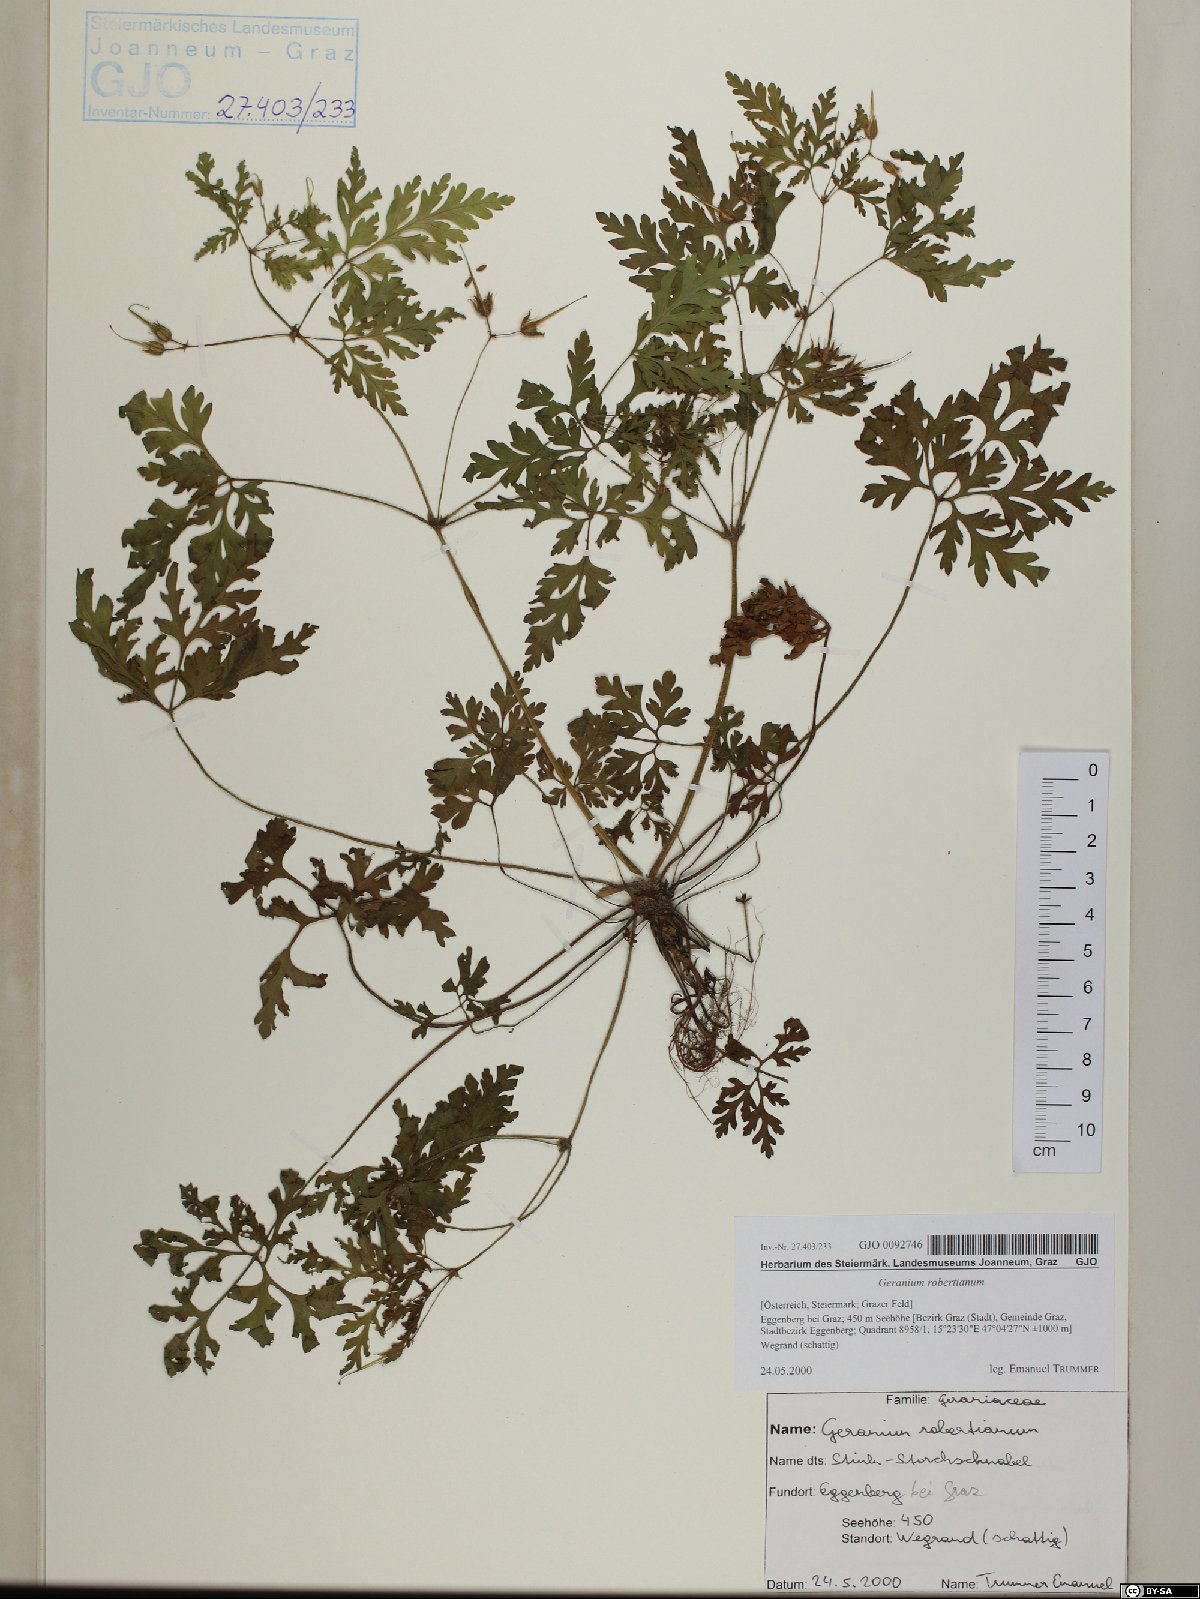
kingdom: Plantae
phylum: Tracheophyta
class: Magnoliopsida
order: Geraniales
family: Geraniaceae
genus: Geranium
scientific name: Geranium robertianum
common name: Herb-robert
